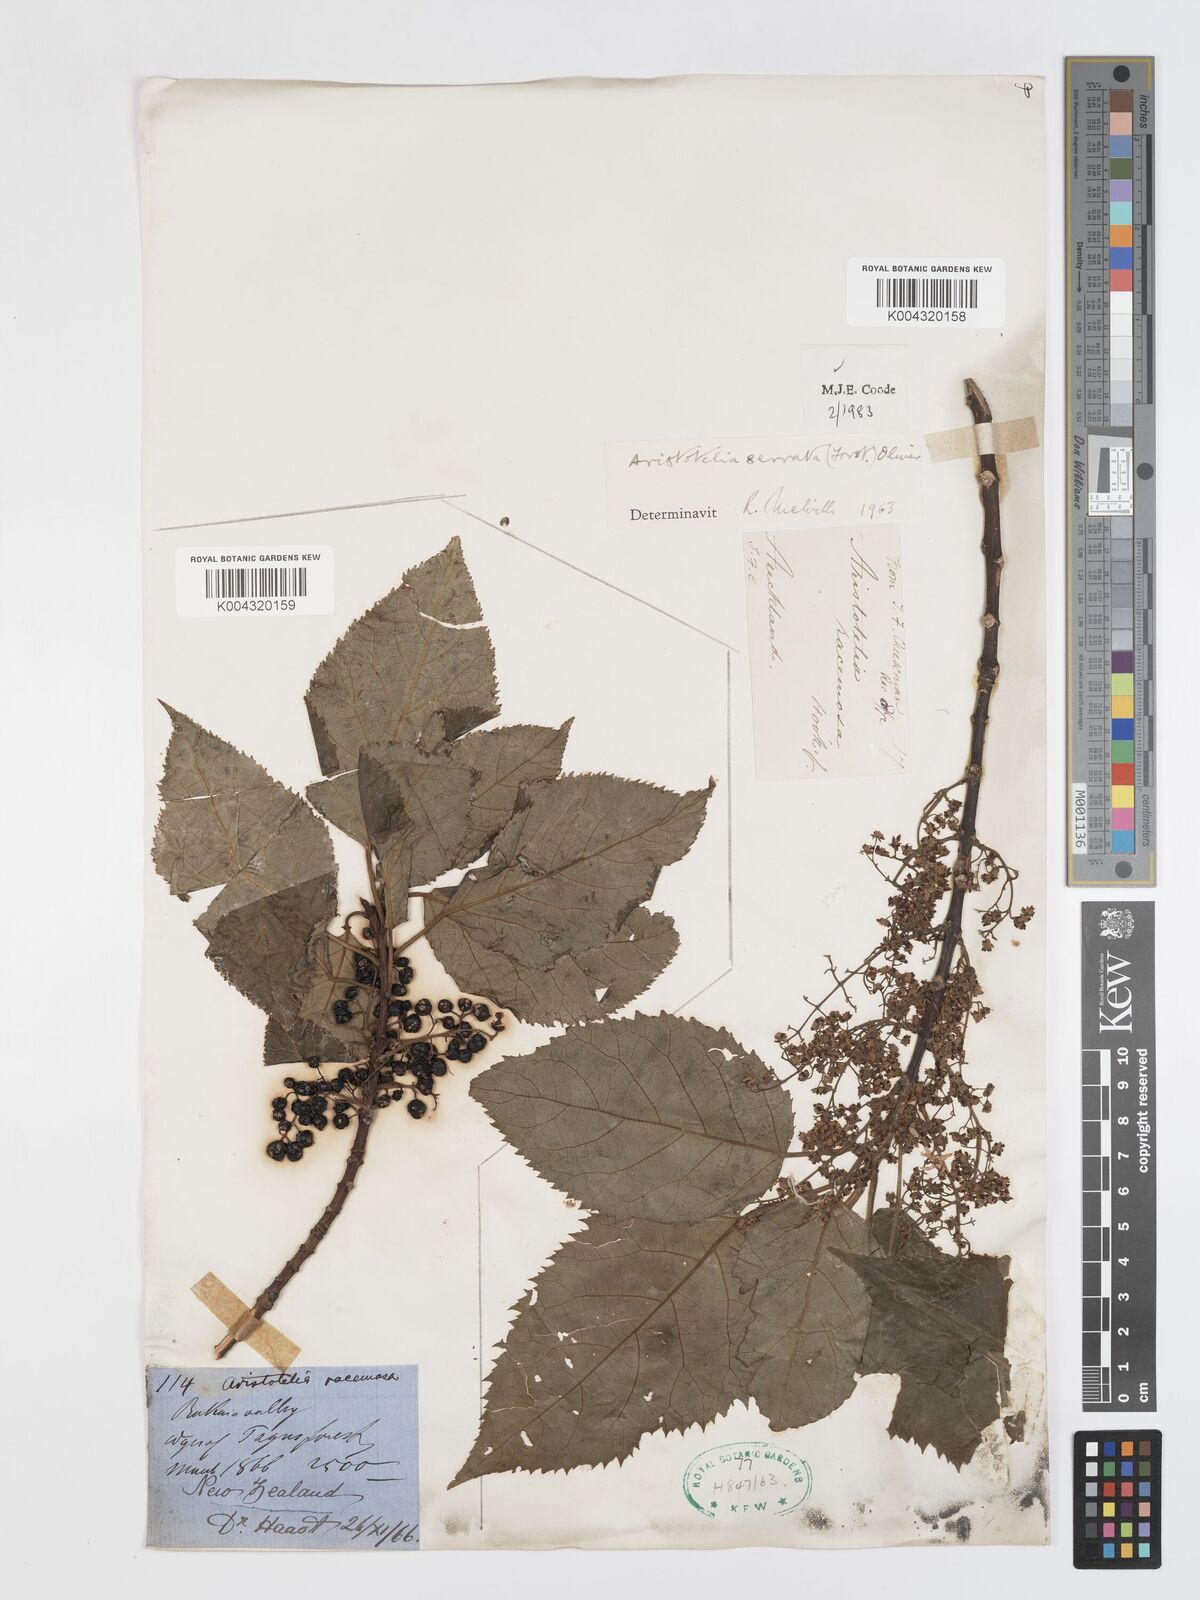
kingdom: Plantae
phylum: Tracheophyta
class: Magnoliopsida
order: Oxalidales
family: Elaeocarpaceae
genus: Aristotelia
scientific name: Aristotelia serrata
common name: New zealand wineberry
